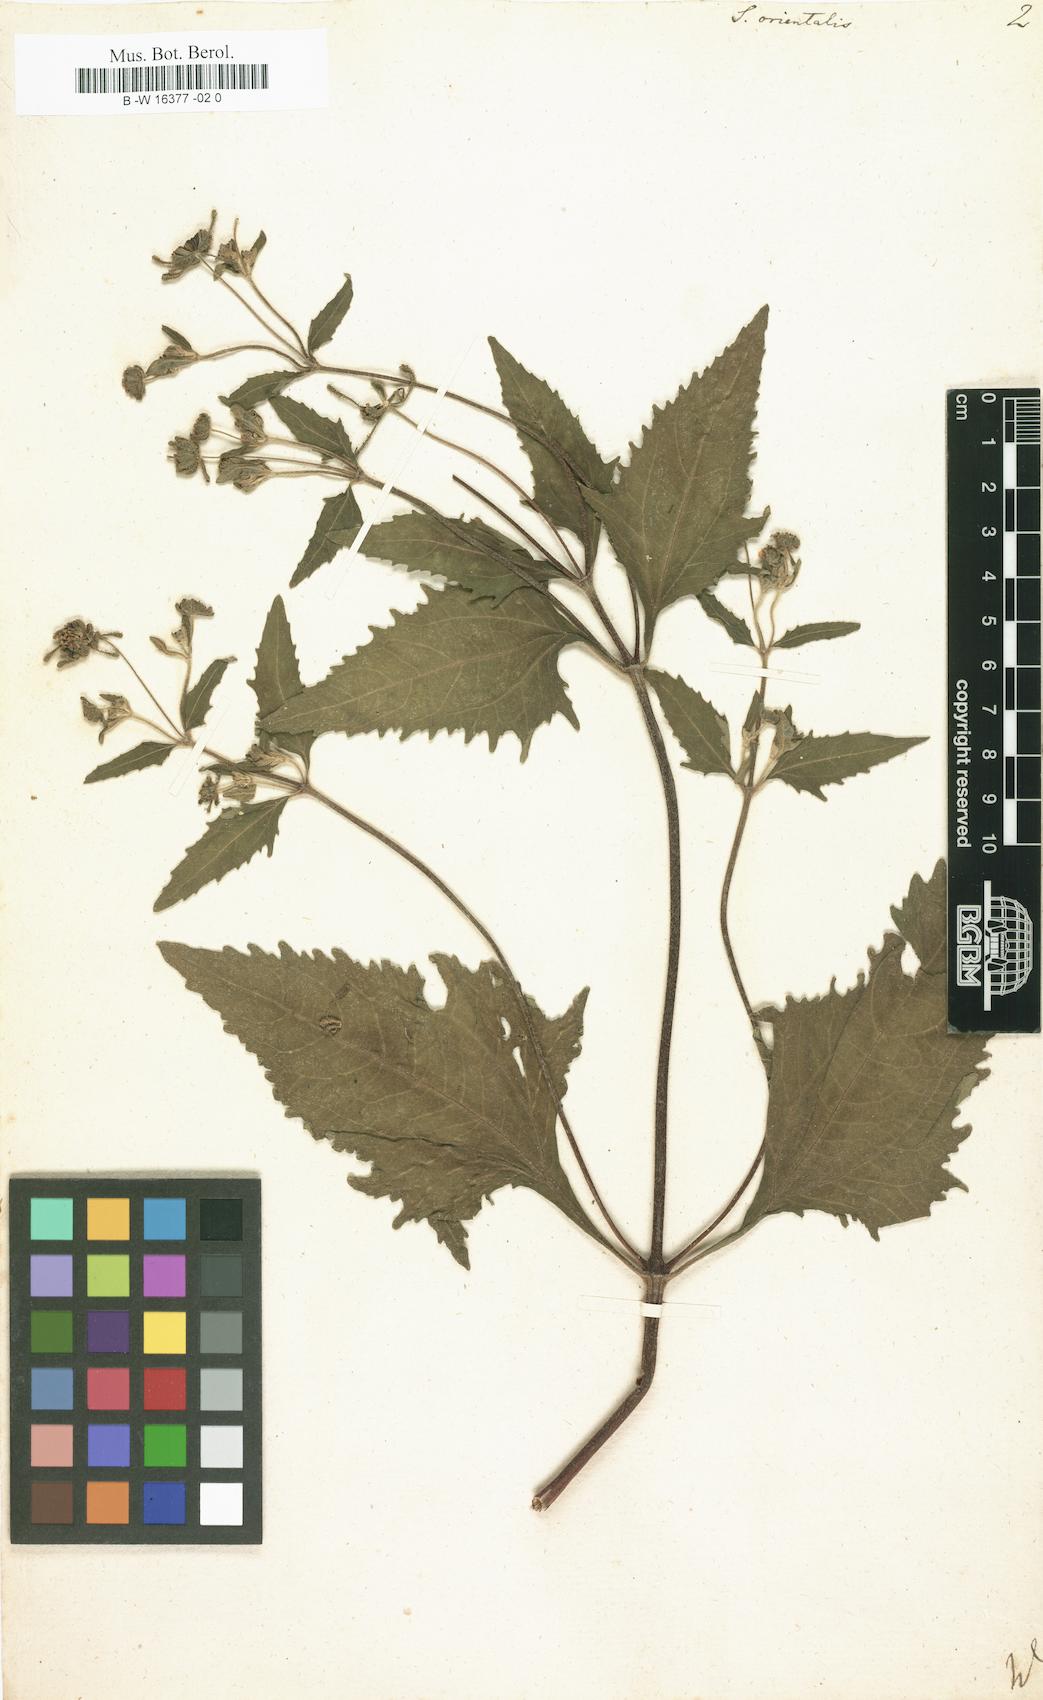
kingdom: Plantae
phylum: Tracheophyta
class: Magnoliopsida
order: Asterales
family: Asteraceae
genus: Sigesbeckia
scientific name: Sigesbeckia orientalis
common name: Eastern st paul's-wort
